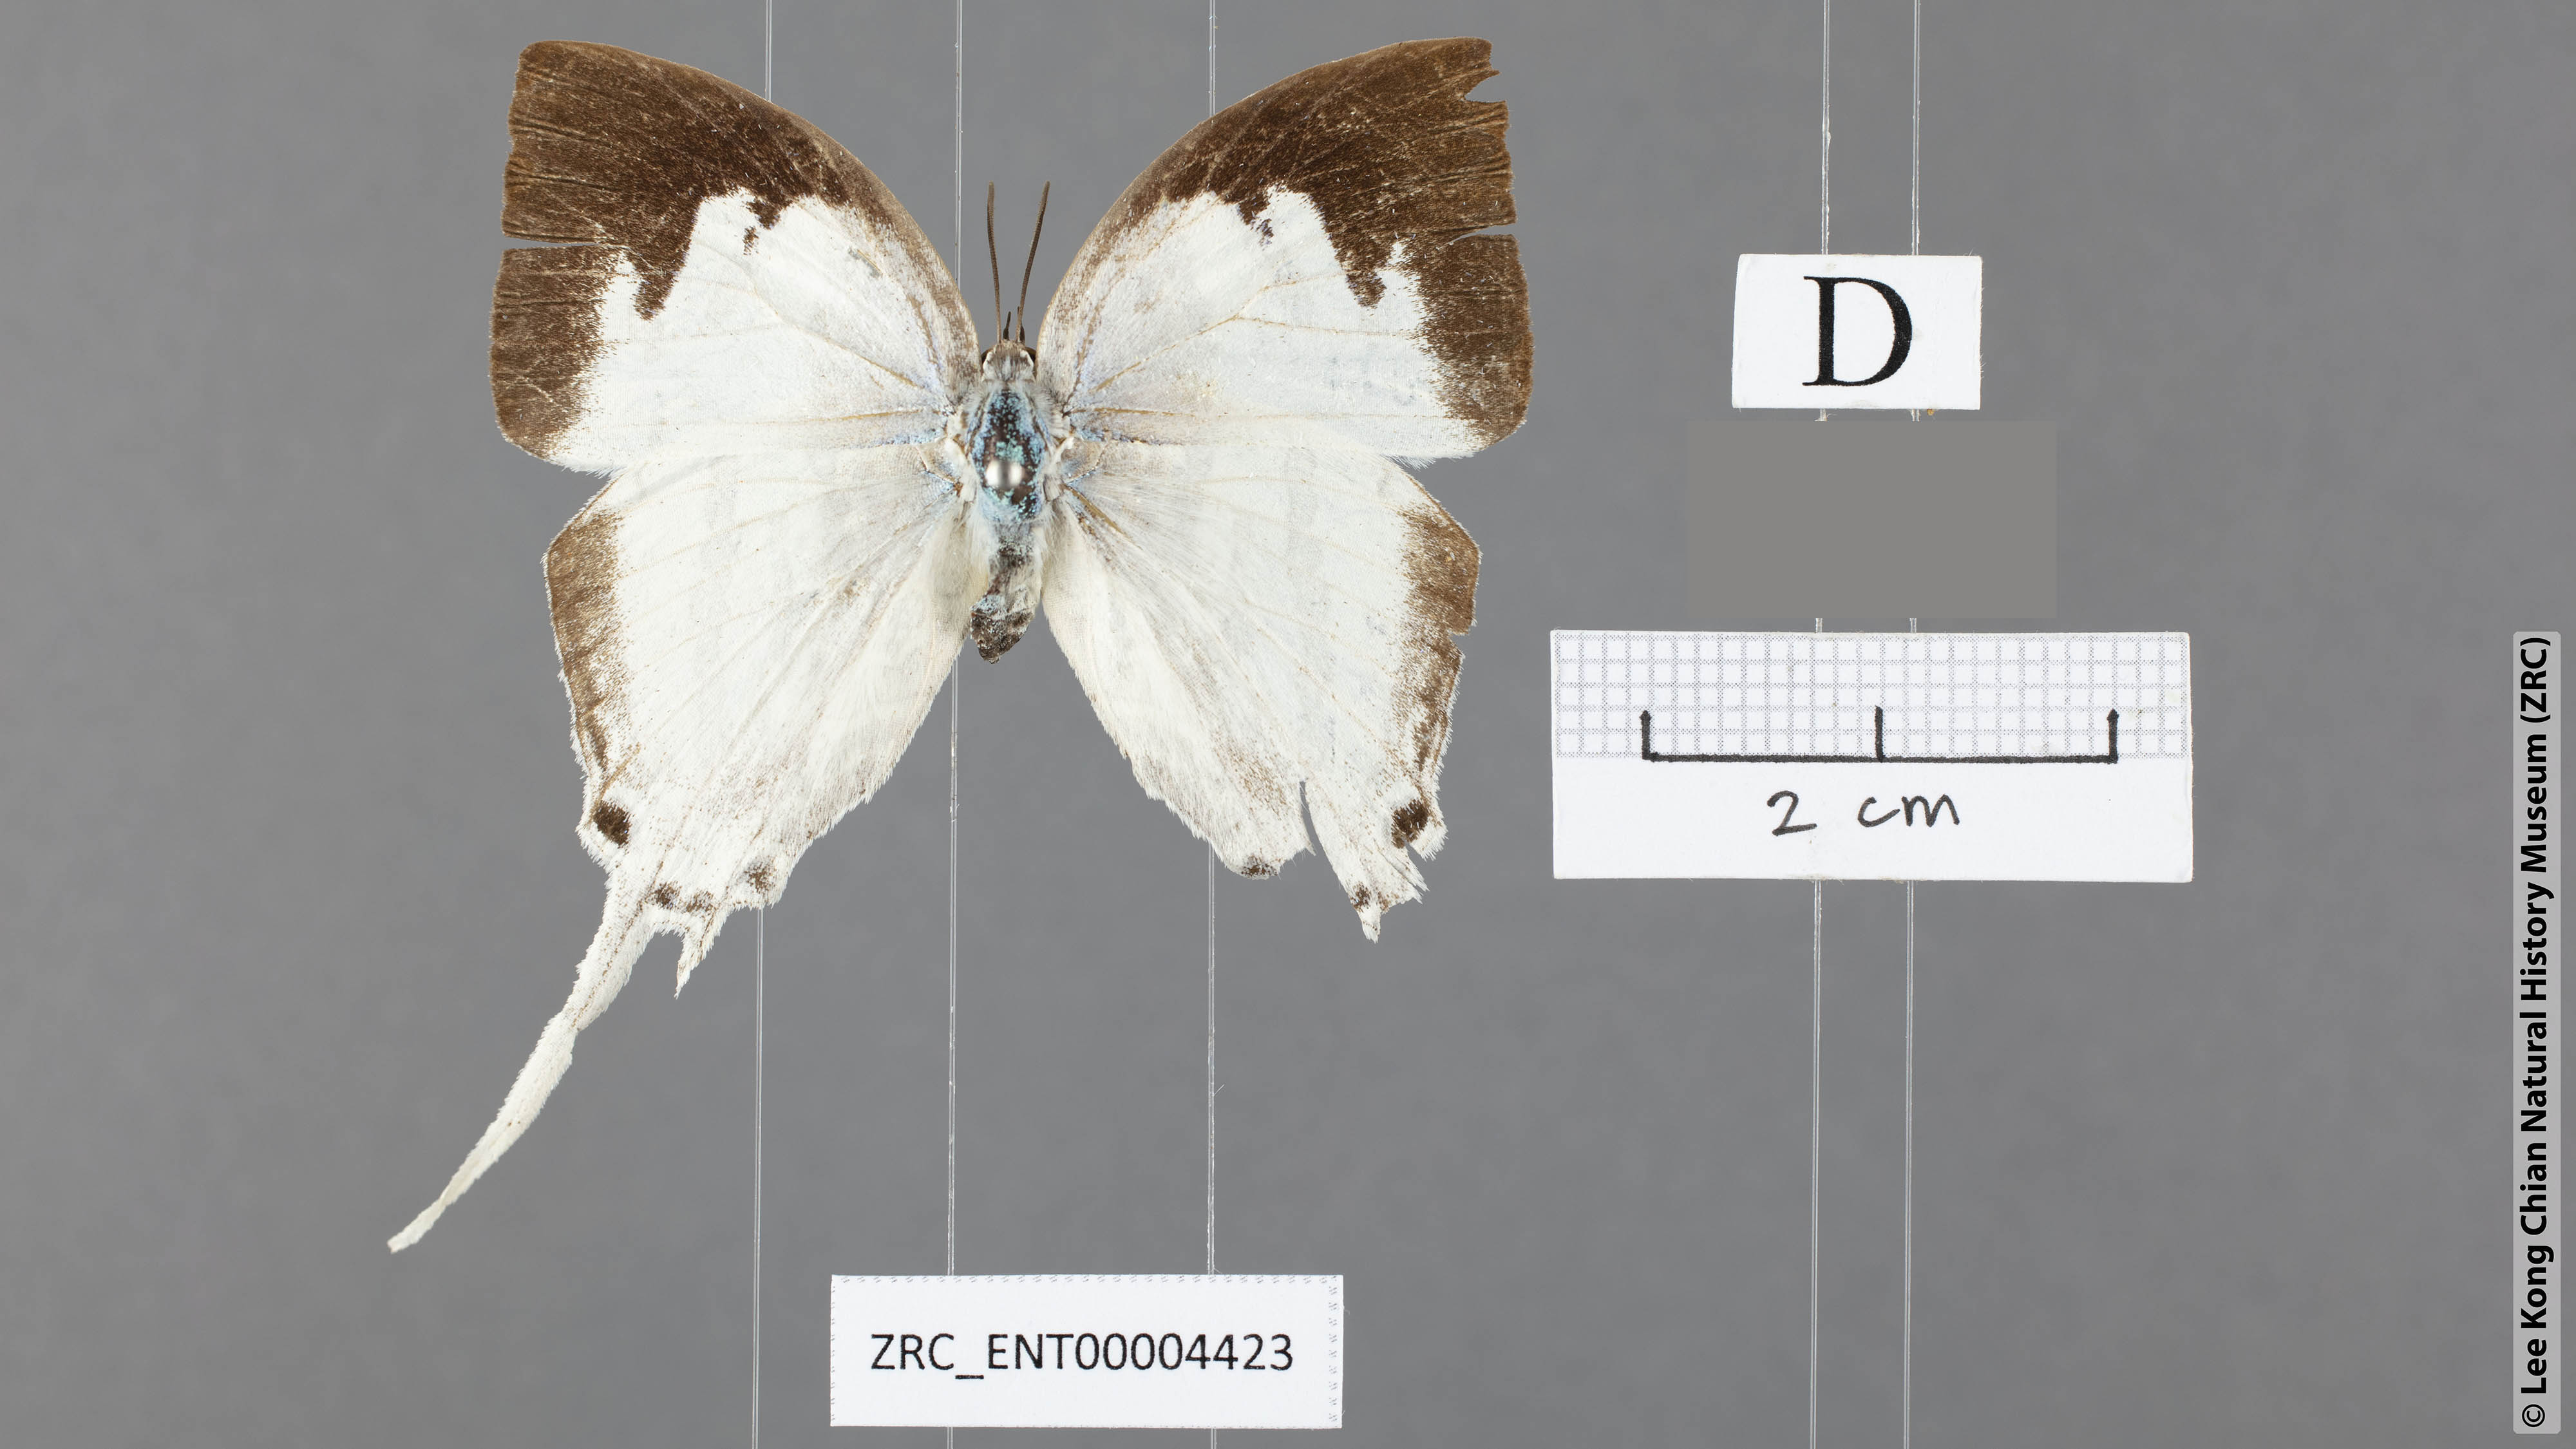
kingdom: Animalia
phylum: Arthropoda
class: Insecta
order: Lepidoptera
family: Lycaenidae
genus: Neomyrina
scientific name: Neomyrina nivea
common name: White imperial butterfly
